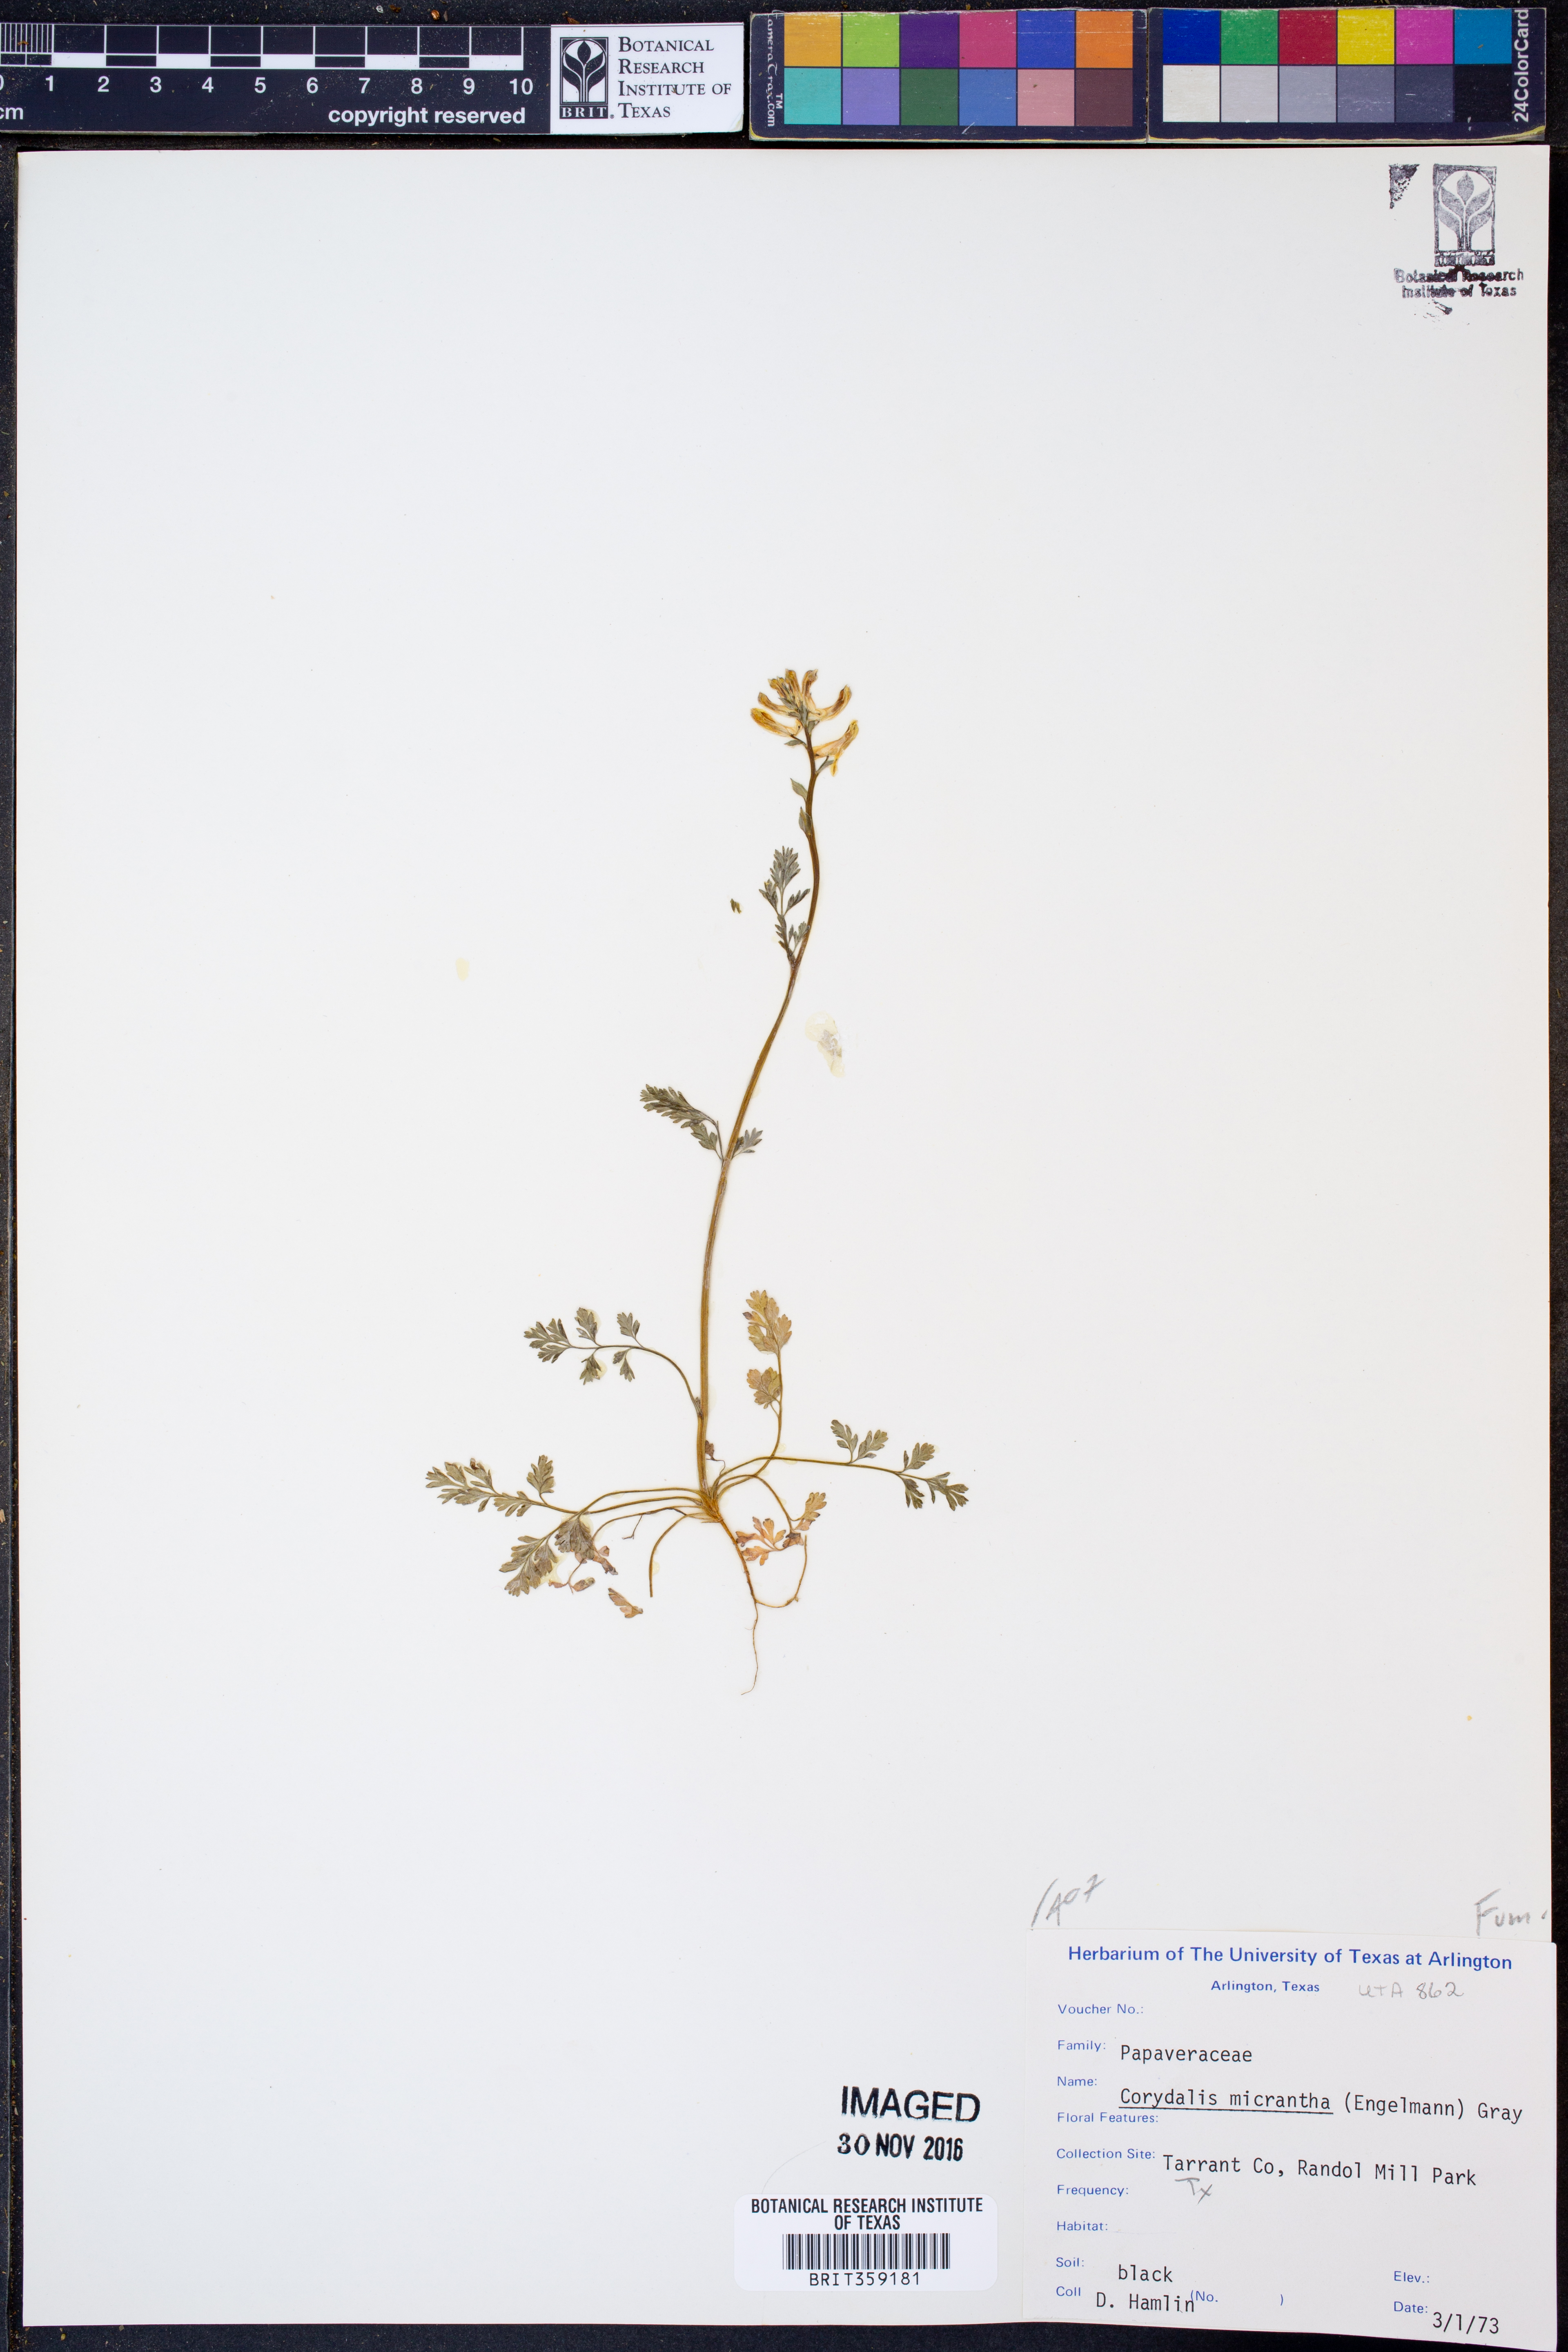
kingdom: Plantae
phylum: Tracheophyta
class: Magnoliopsida
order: Ranunculales
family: Papaveraceae
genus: Corydalis
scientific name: Corydalis micrantha
